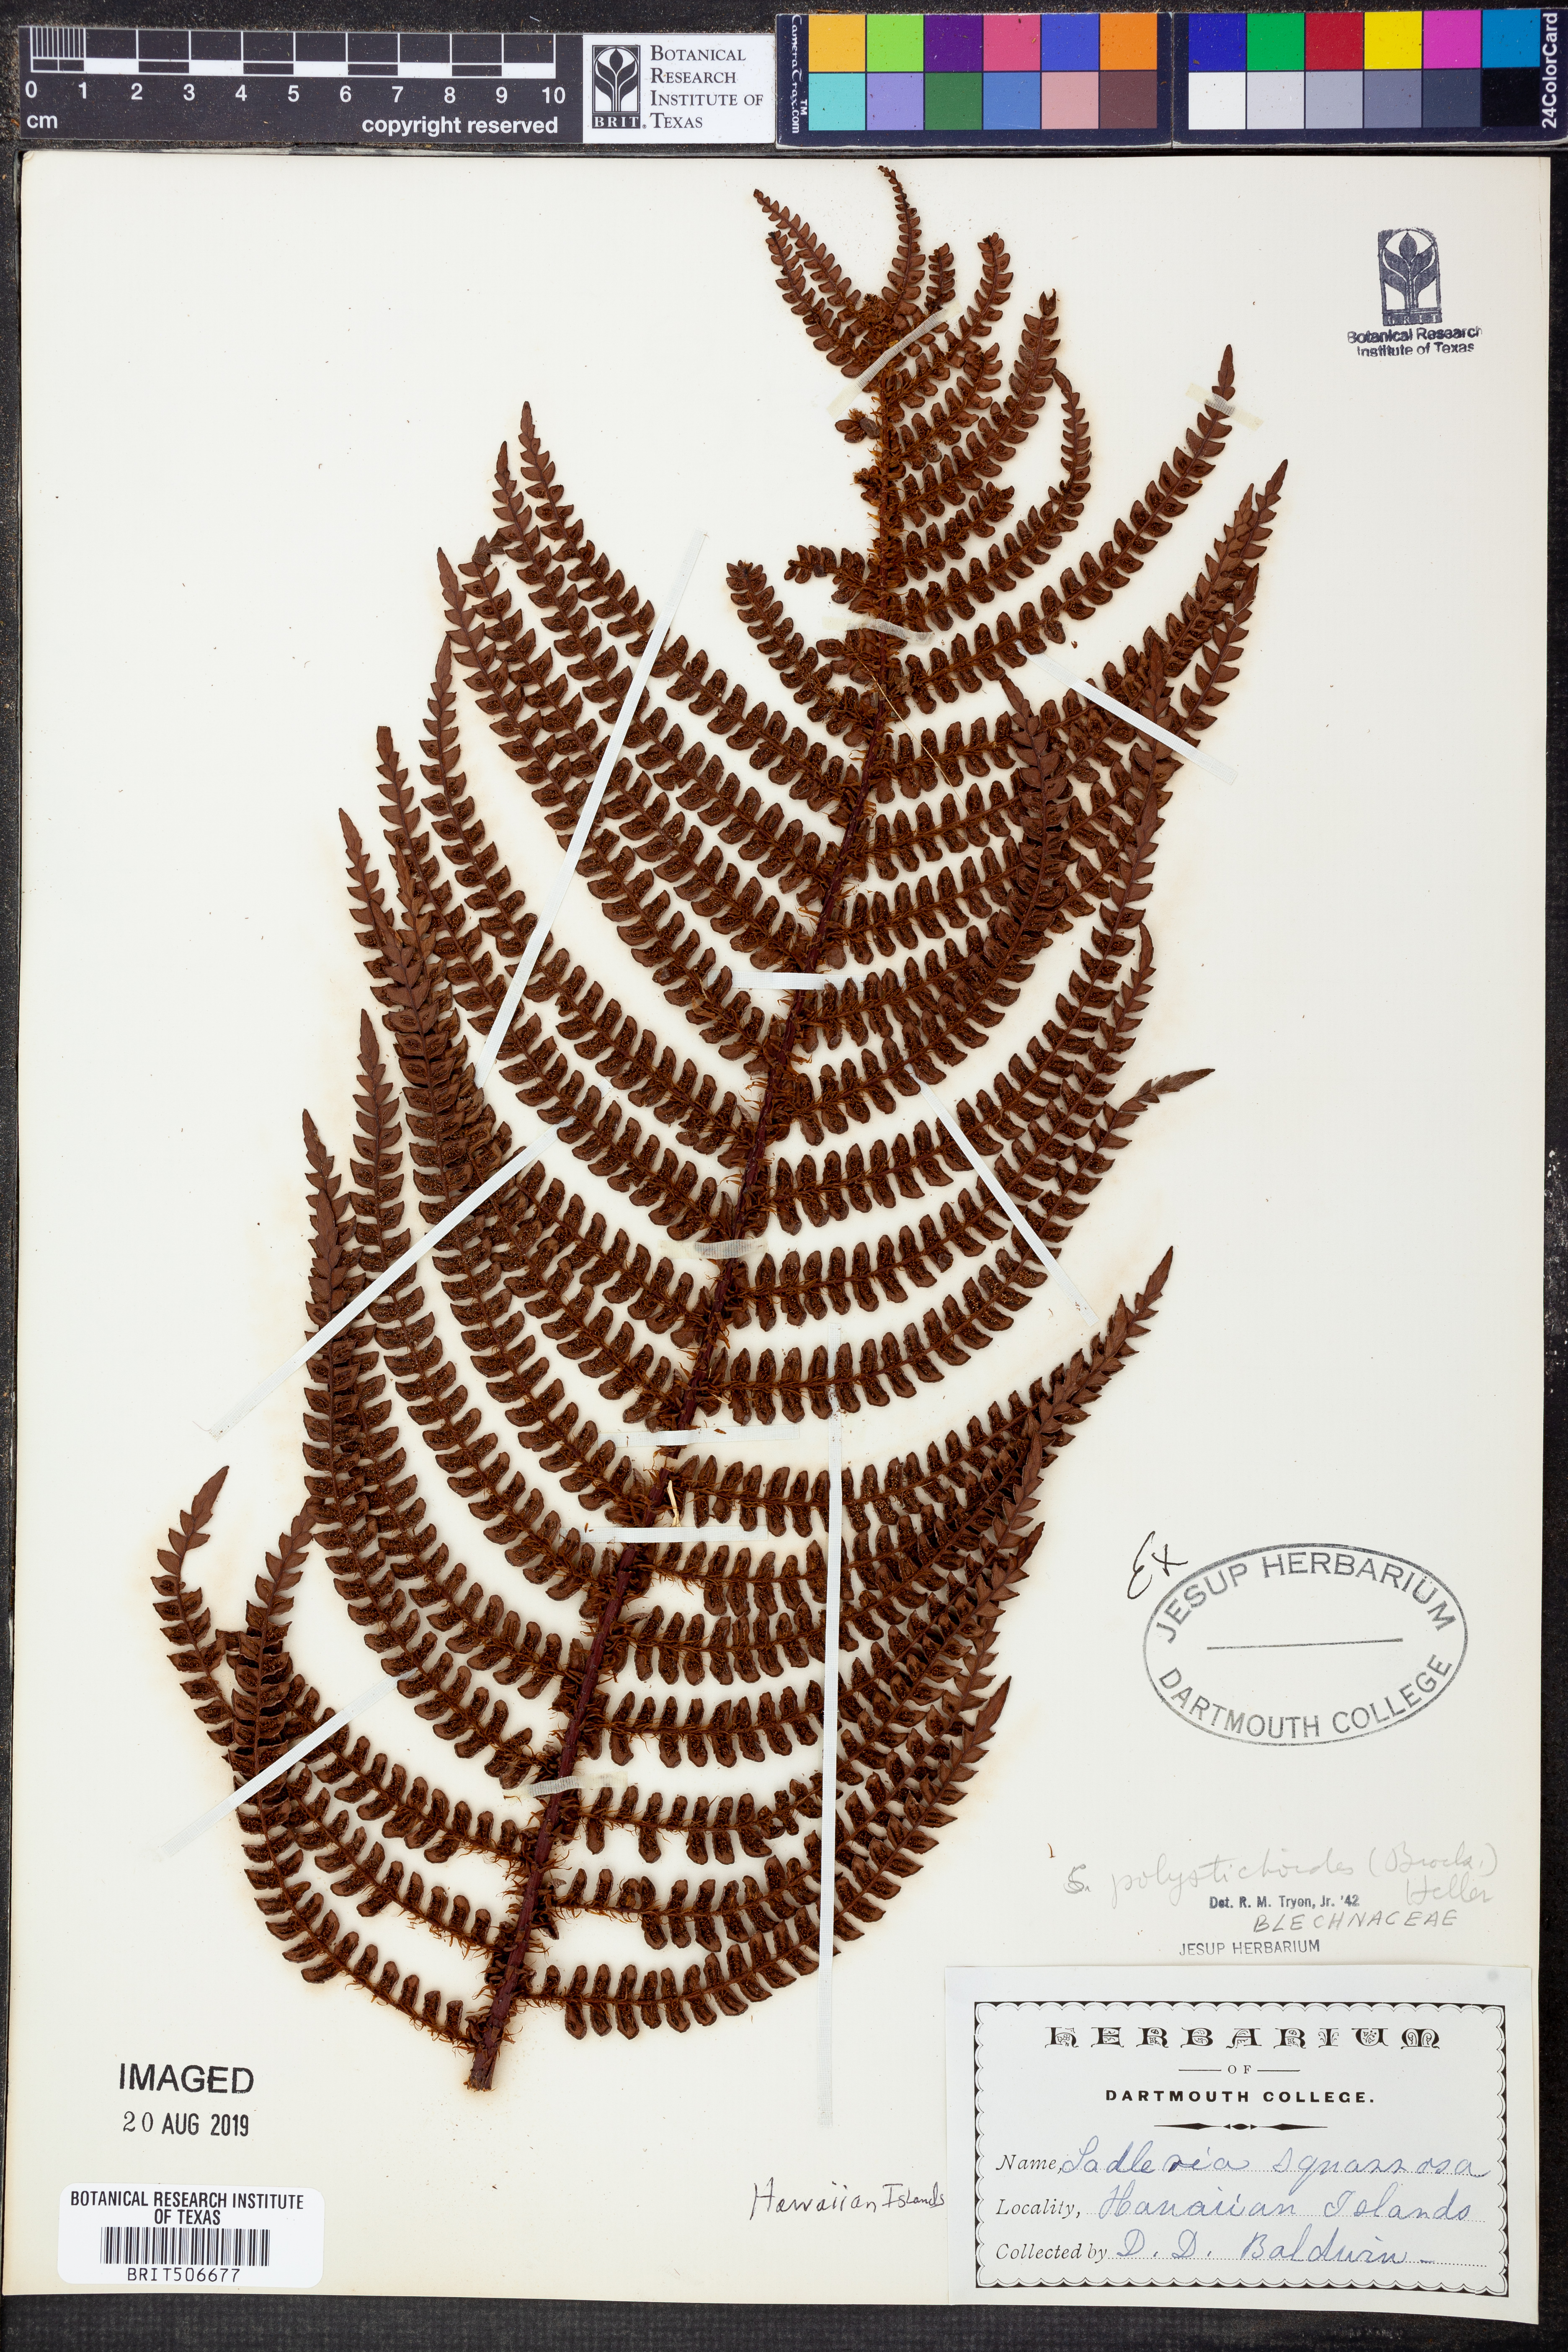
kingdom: Plantae
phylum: Tracheophyta
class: Polypodiopsida
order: Polypodiales
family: Blechnaceae
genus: Sadleria
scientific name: Sadleria squarrosa
